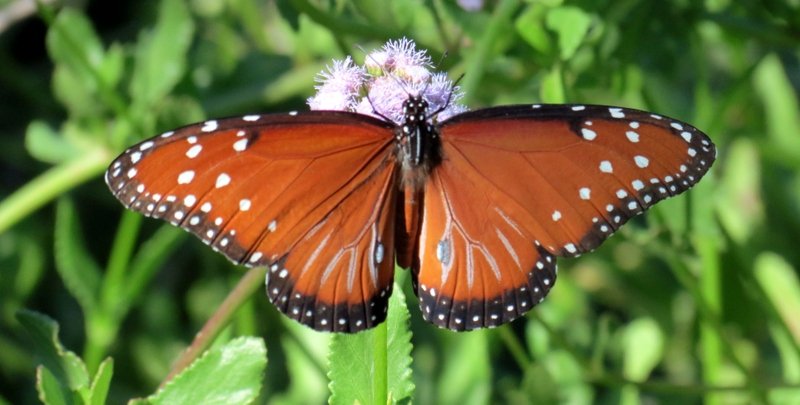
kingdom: Animalia
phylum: Arthropoda
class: Insecta
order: Lepidoptera
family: Nymphalidae
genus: Danaus
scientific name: Danaus gilippus
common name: Queen
